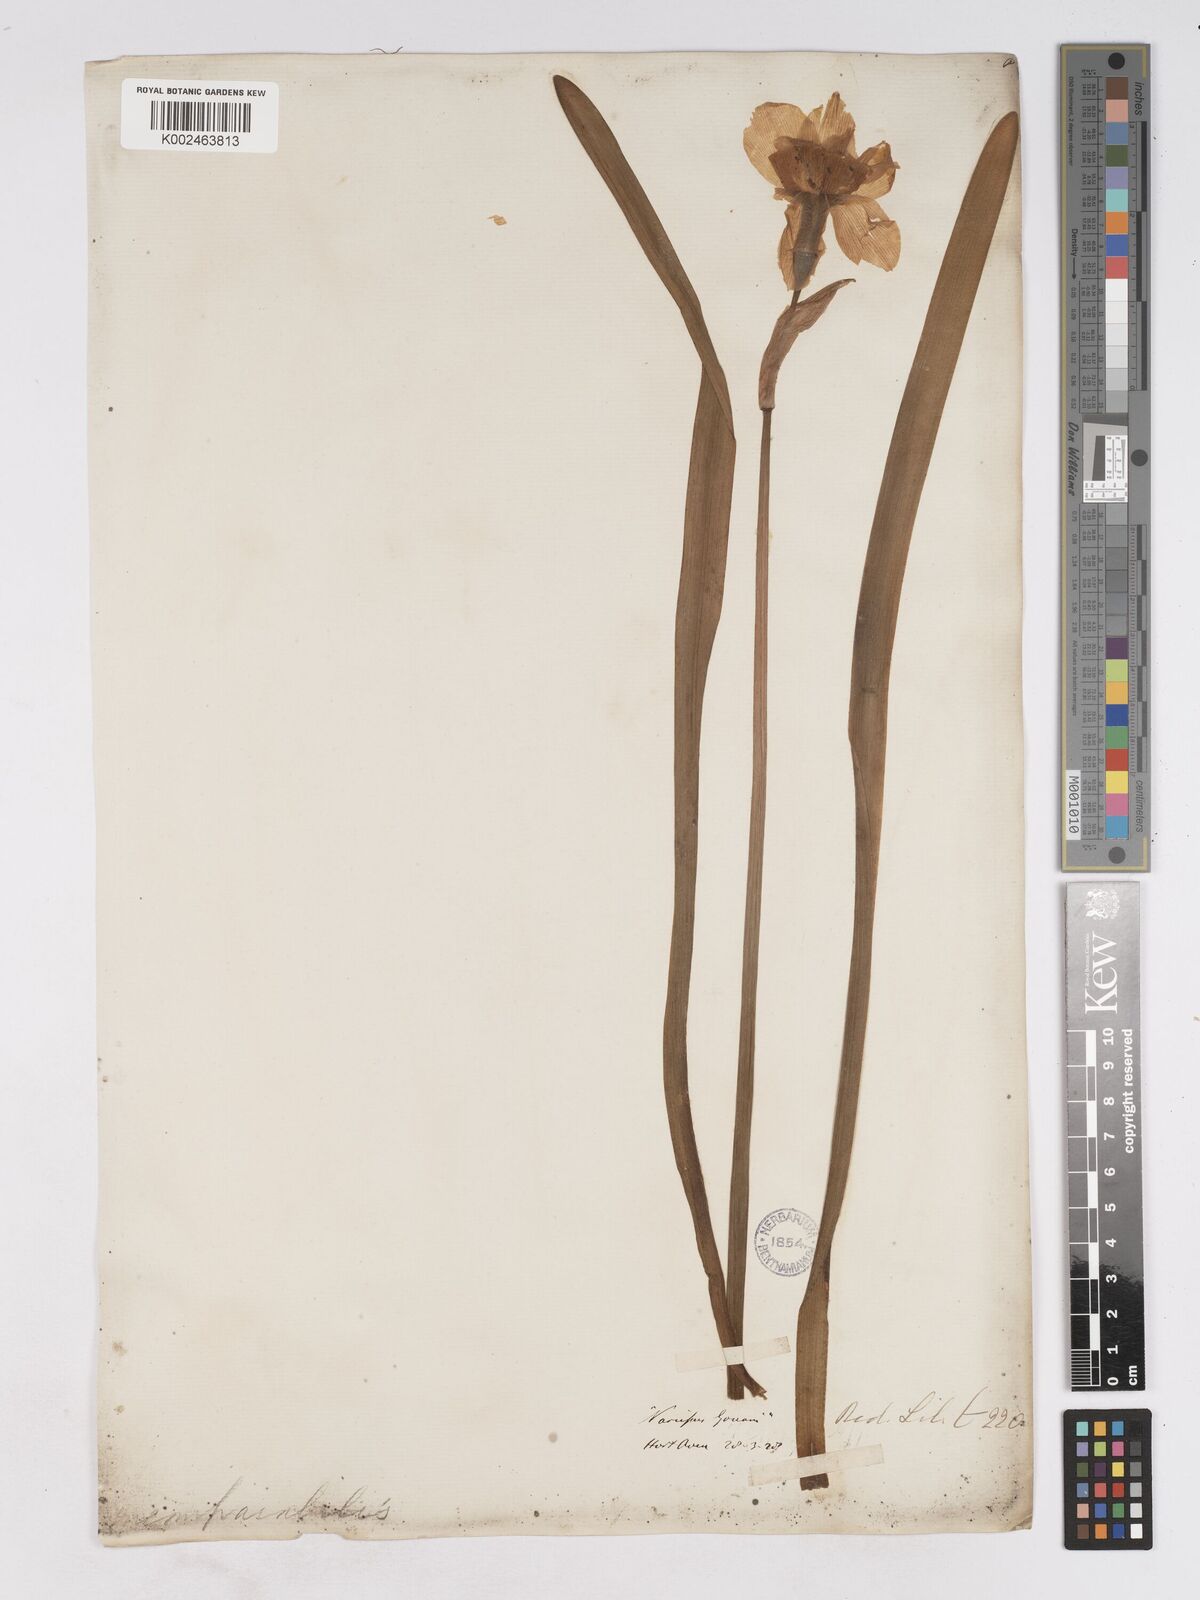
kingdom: Plantae
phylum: Tracheophyta
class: Liliopsida
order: Asparagales
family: Amaryllidaceae
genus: Narcissus
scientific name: Narcissus incomparabilis
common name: Nonesuch daffodil
